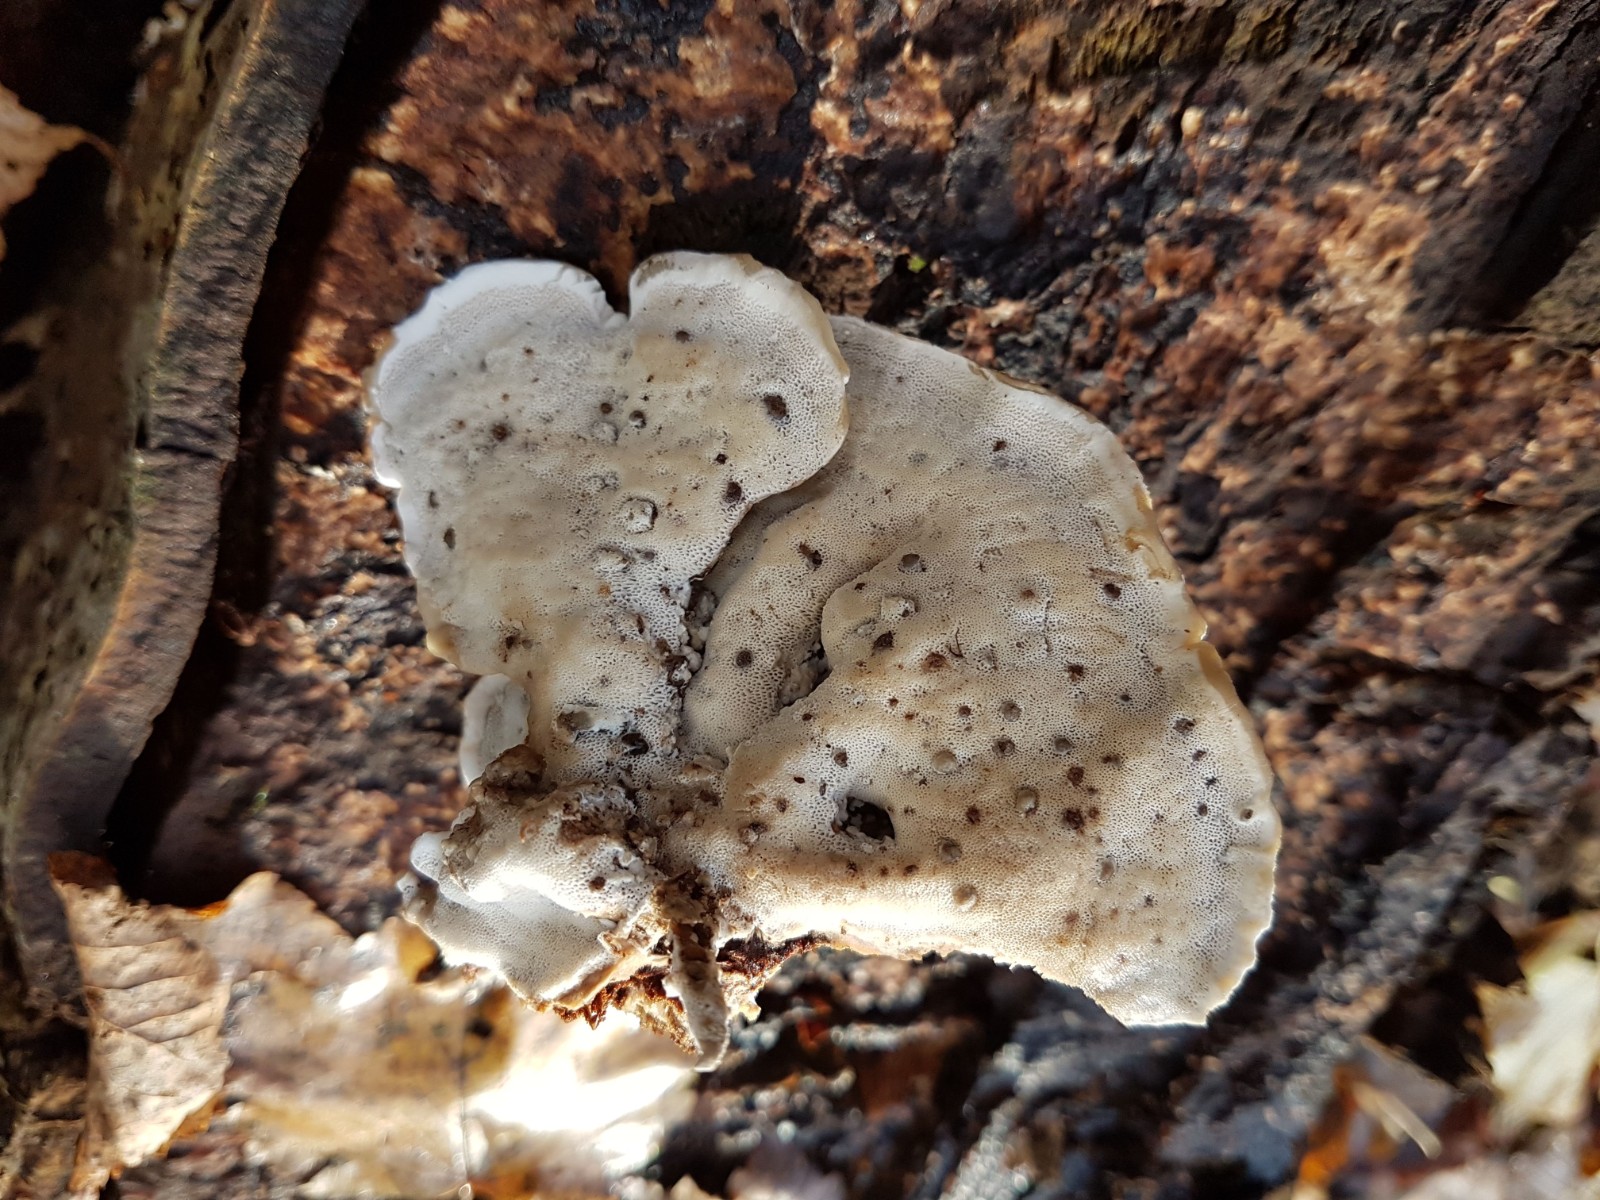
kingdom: Fungi
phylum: Basidiomycota
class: Agaricomycetes
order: Polyporales
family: Phanerochaetaceae
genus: Bjerkandera
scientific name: Bjerkandera adusta
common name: sveden sodporesvamp
